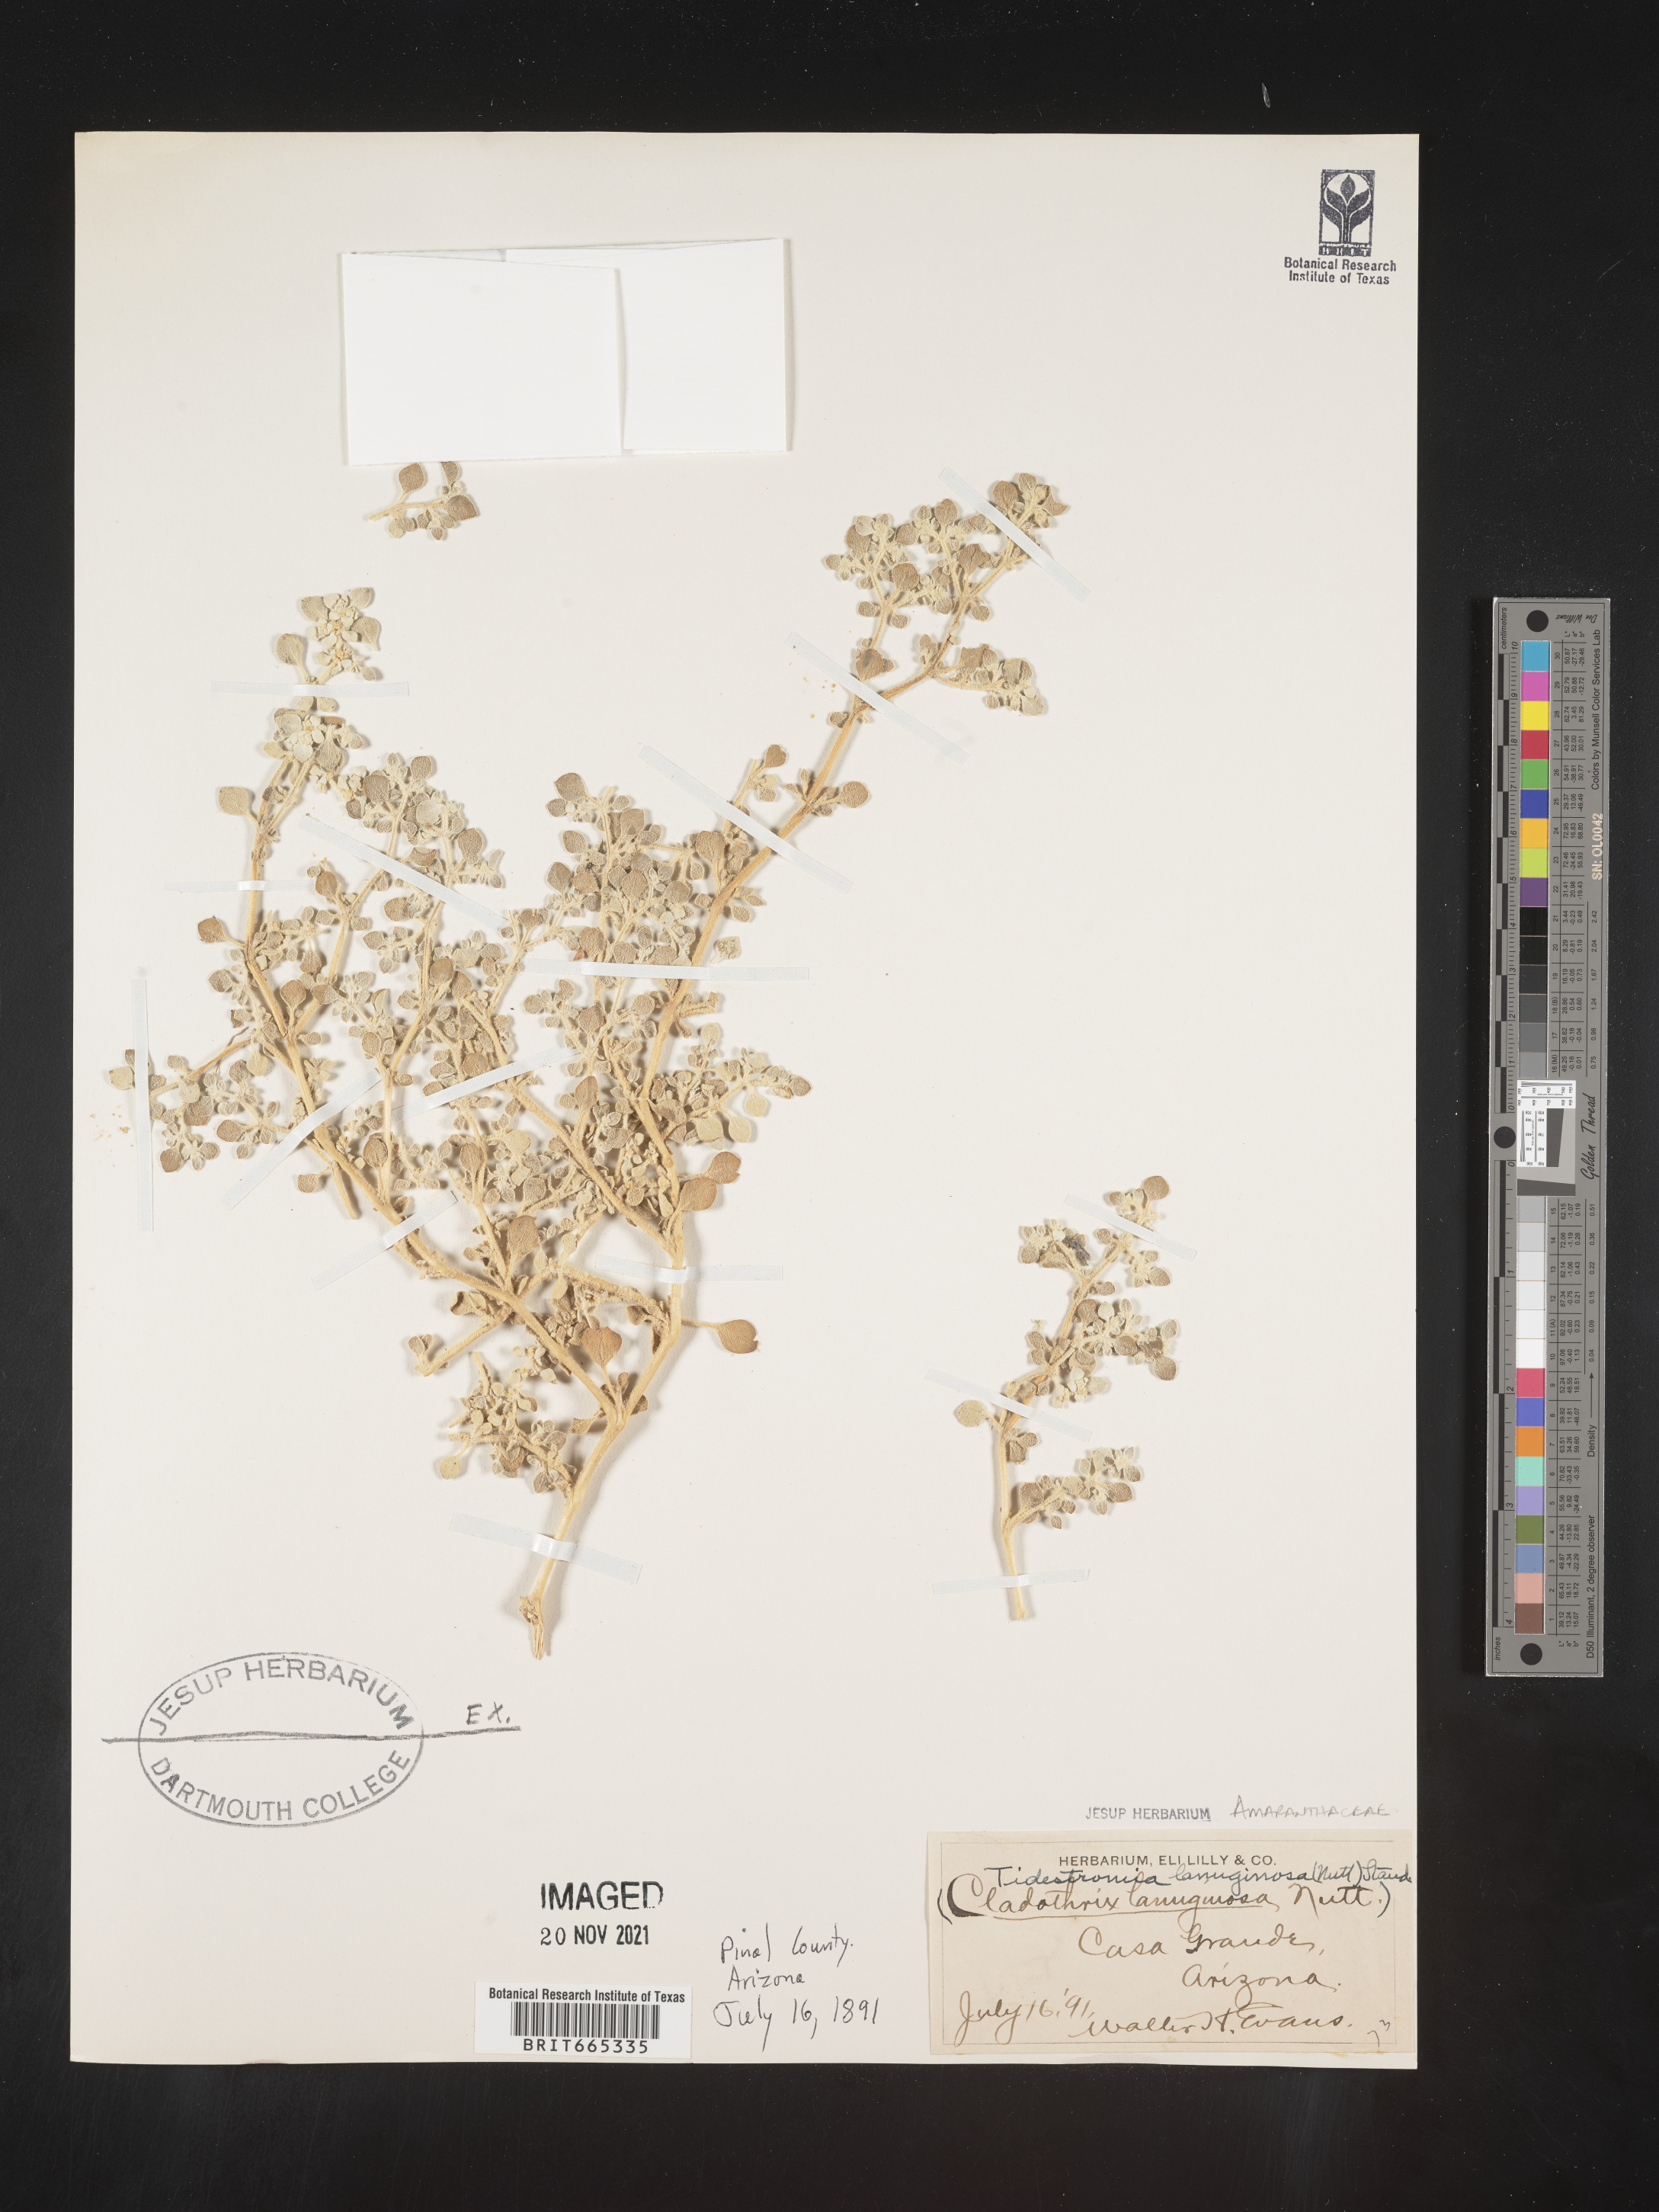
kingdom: Plantae
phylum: Tracheophyta
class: Magnoliopsida
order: Caryophyllales
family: Amaranthaceae
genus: Tidestromia
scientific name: Tidestromia lanuginosa
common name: Woolly tidestromia
